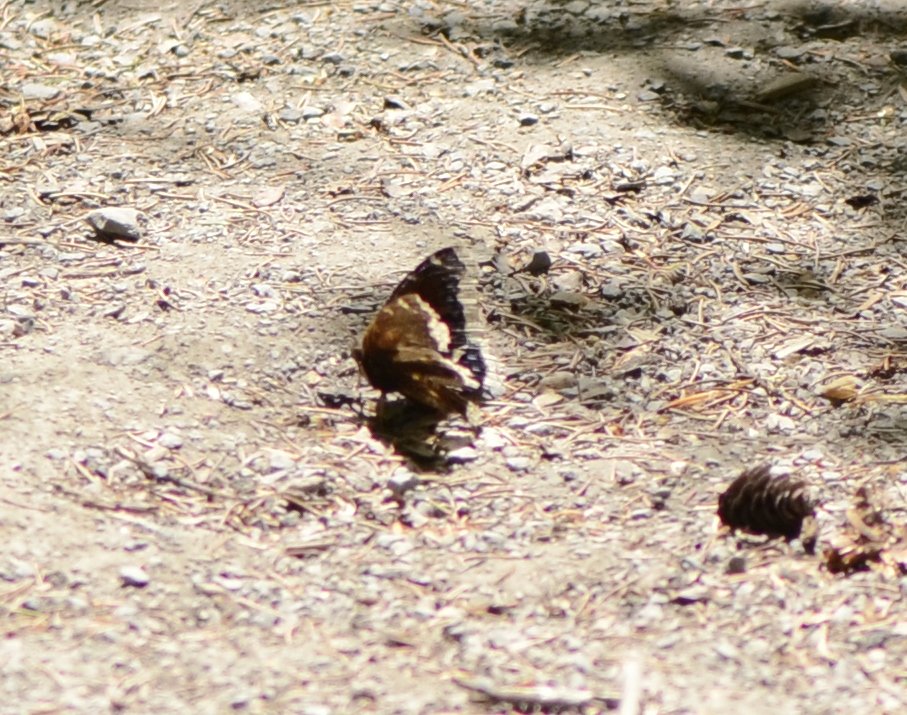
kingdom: Animalia
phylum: Arthropoda
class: Insecta
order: Lepidoptera
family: Nymphalidae
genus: Nymphalis
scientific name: Nymphalis antiopa
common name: Mourning Cloak
